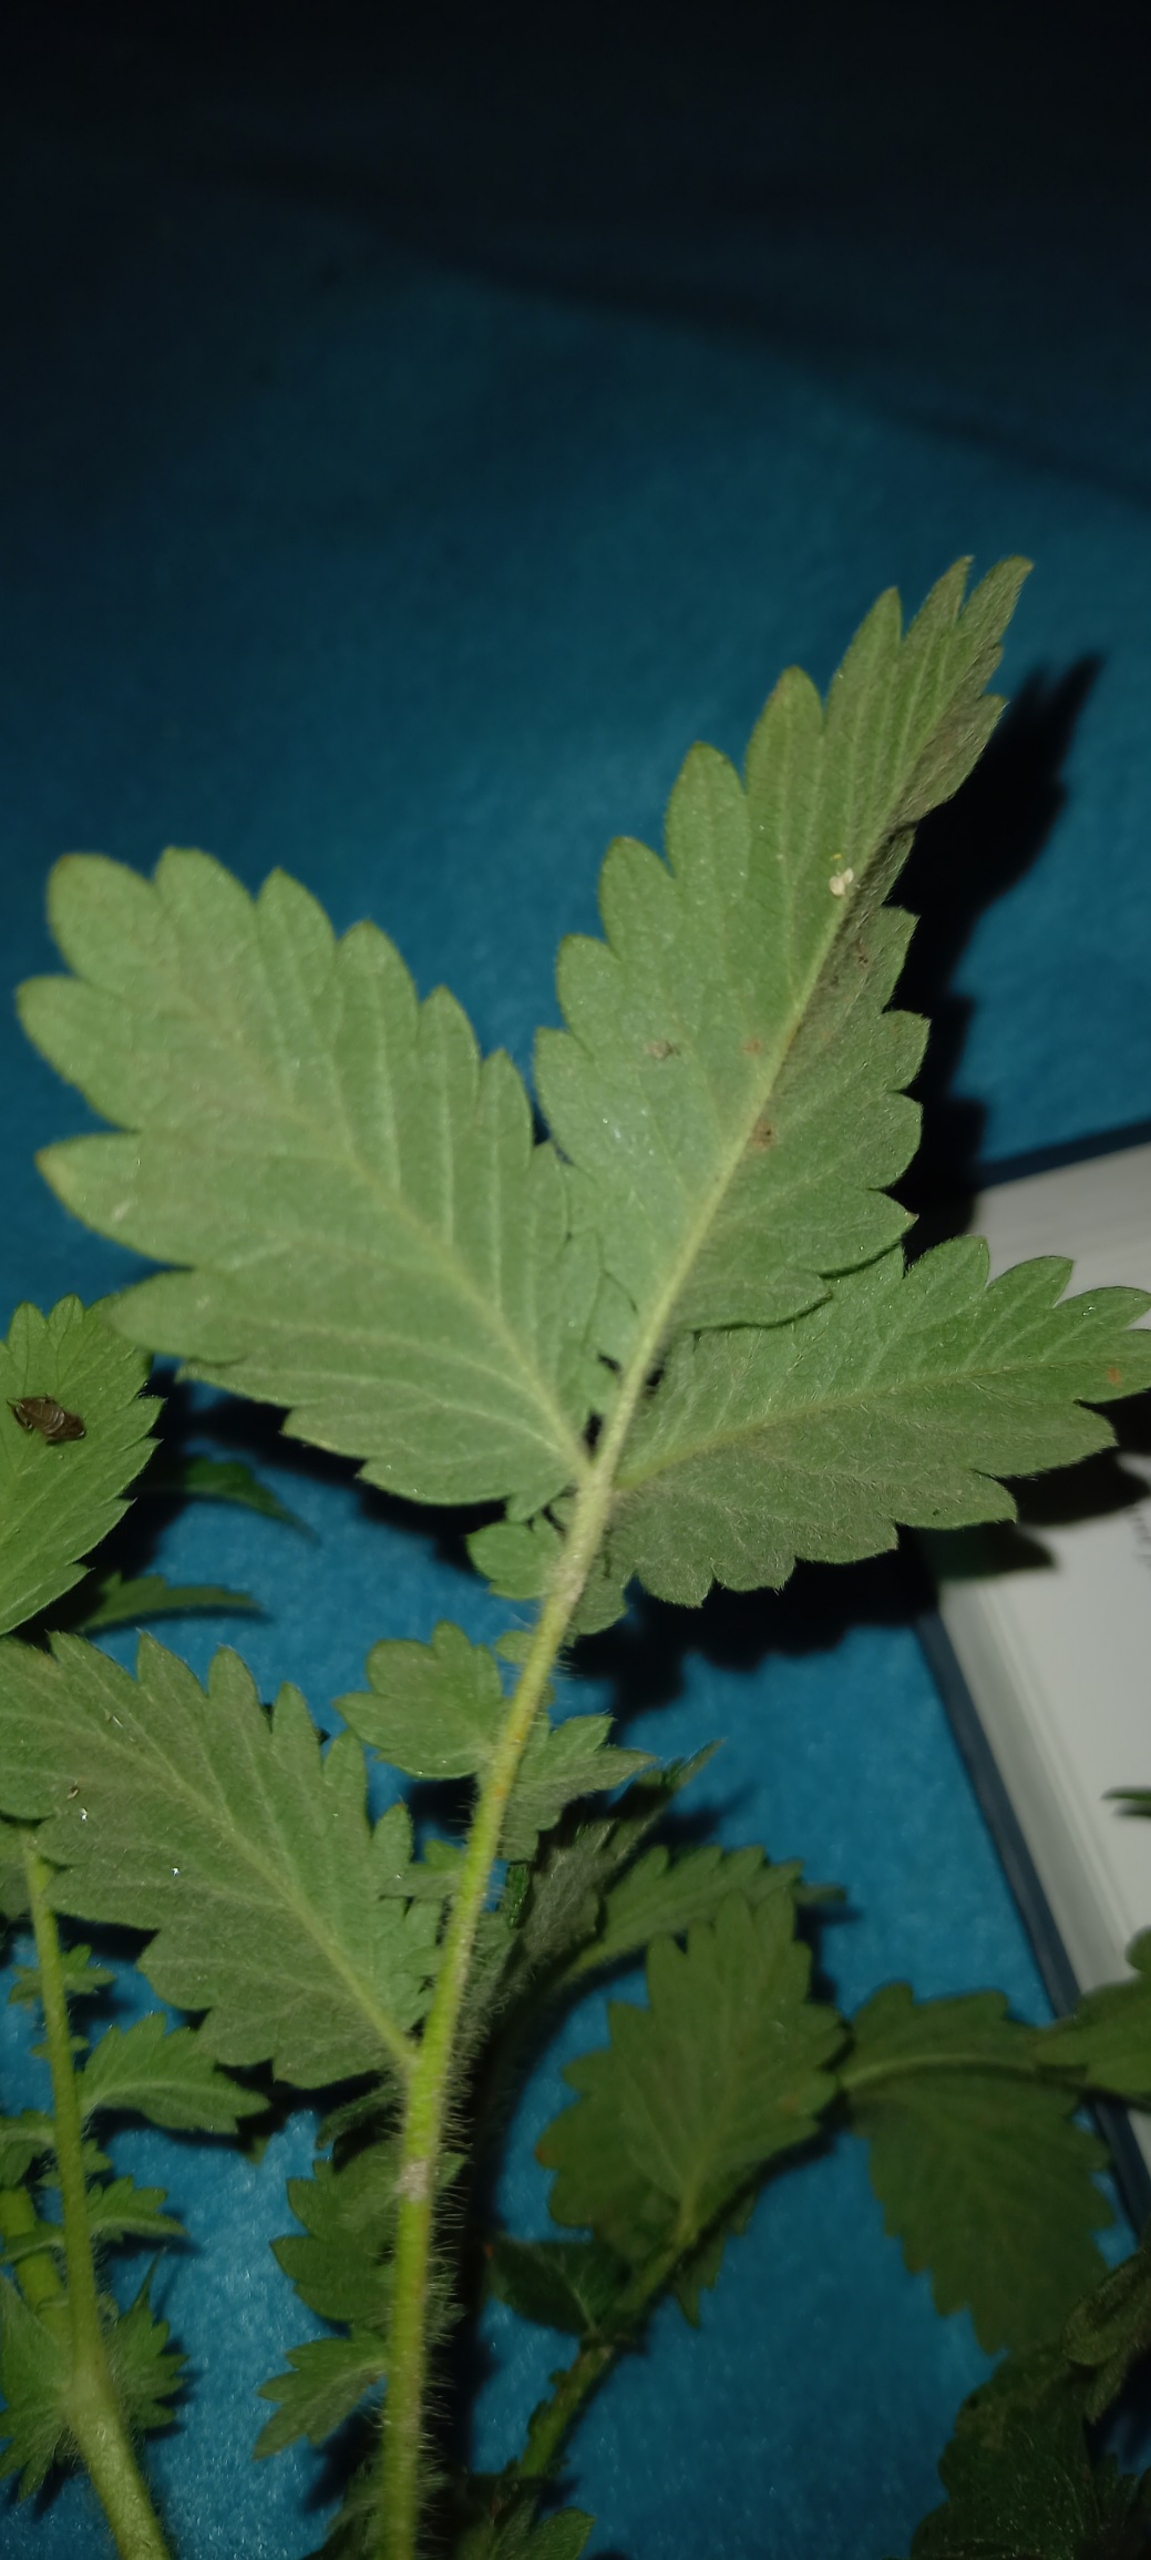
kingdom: Plantae
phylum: Tracheophyta
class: Magnoliopsida
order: Rosales
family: Rosaceae
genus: Agrimonia
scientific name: Agrimonia eupatoria
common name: Almindelig agermåne
